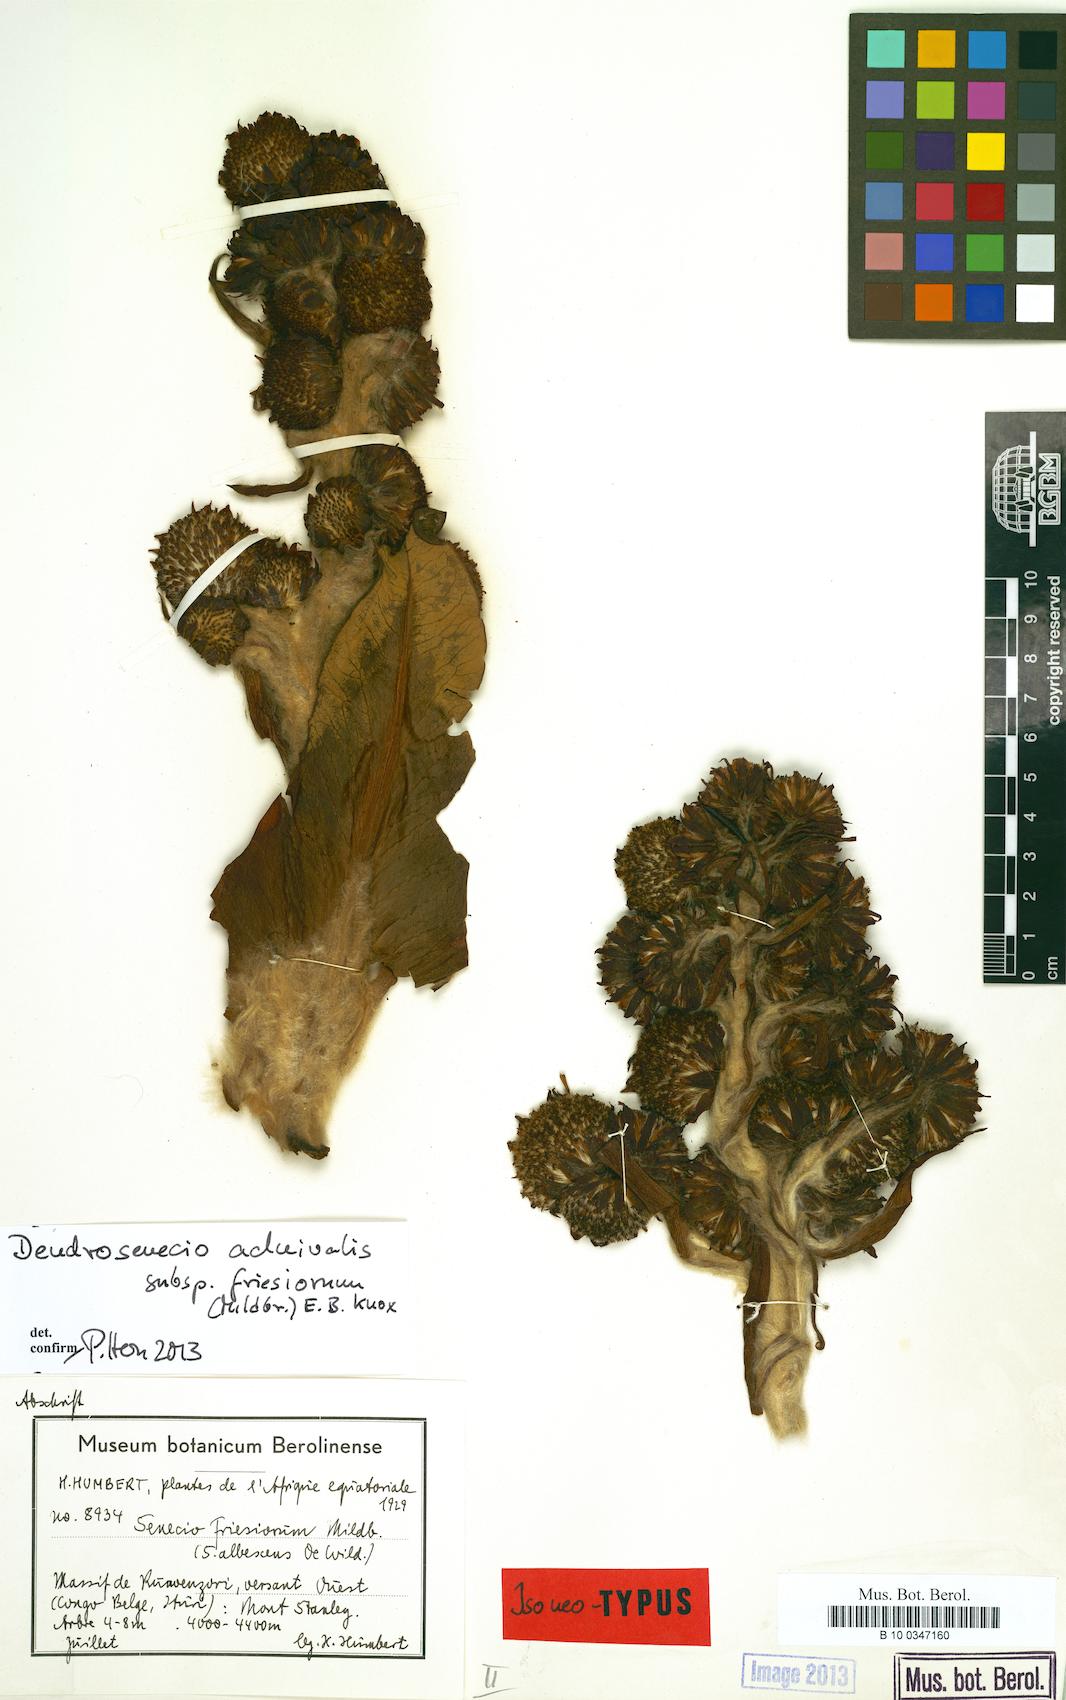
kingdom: Plantae
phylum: Tracheophyta
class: Magnoliopsida
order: Asterales
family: Asteraceae
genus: Dendrosenecio
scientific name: Dendrosenecio adnivalis
